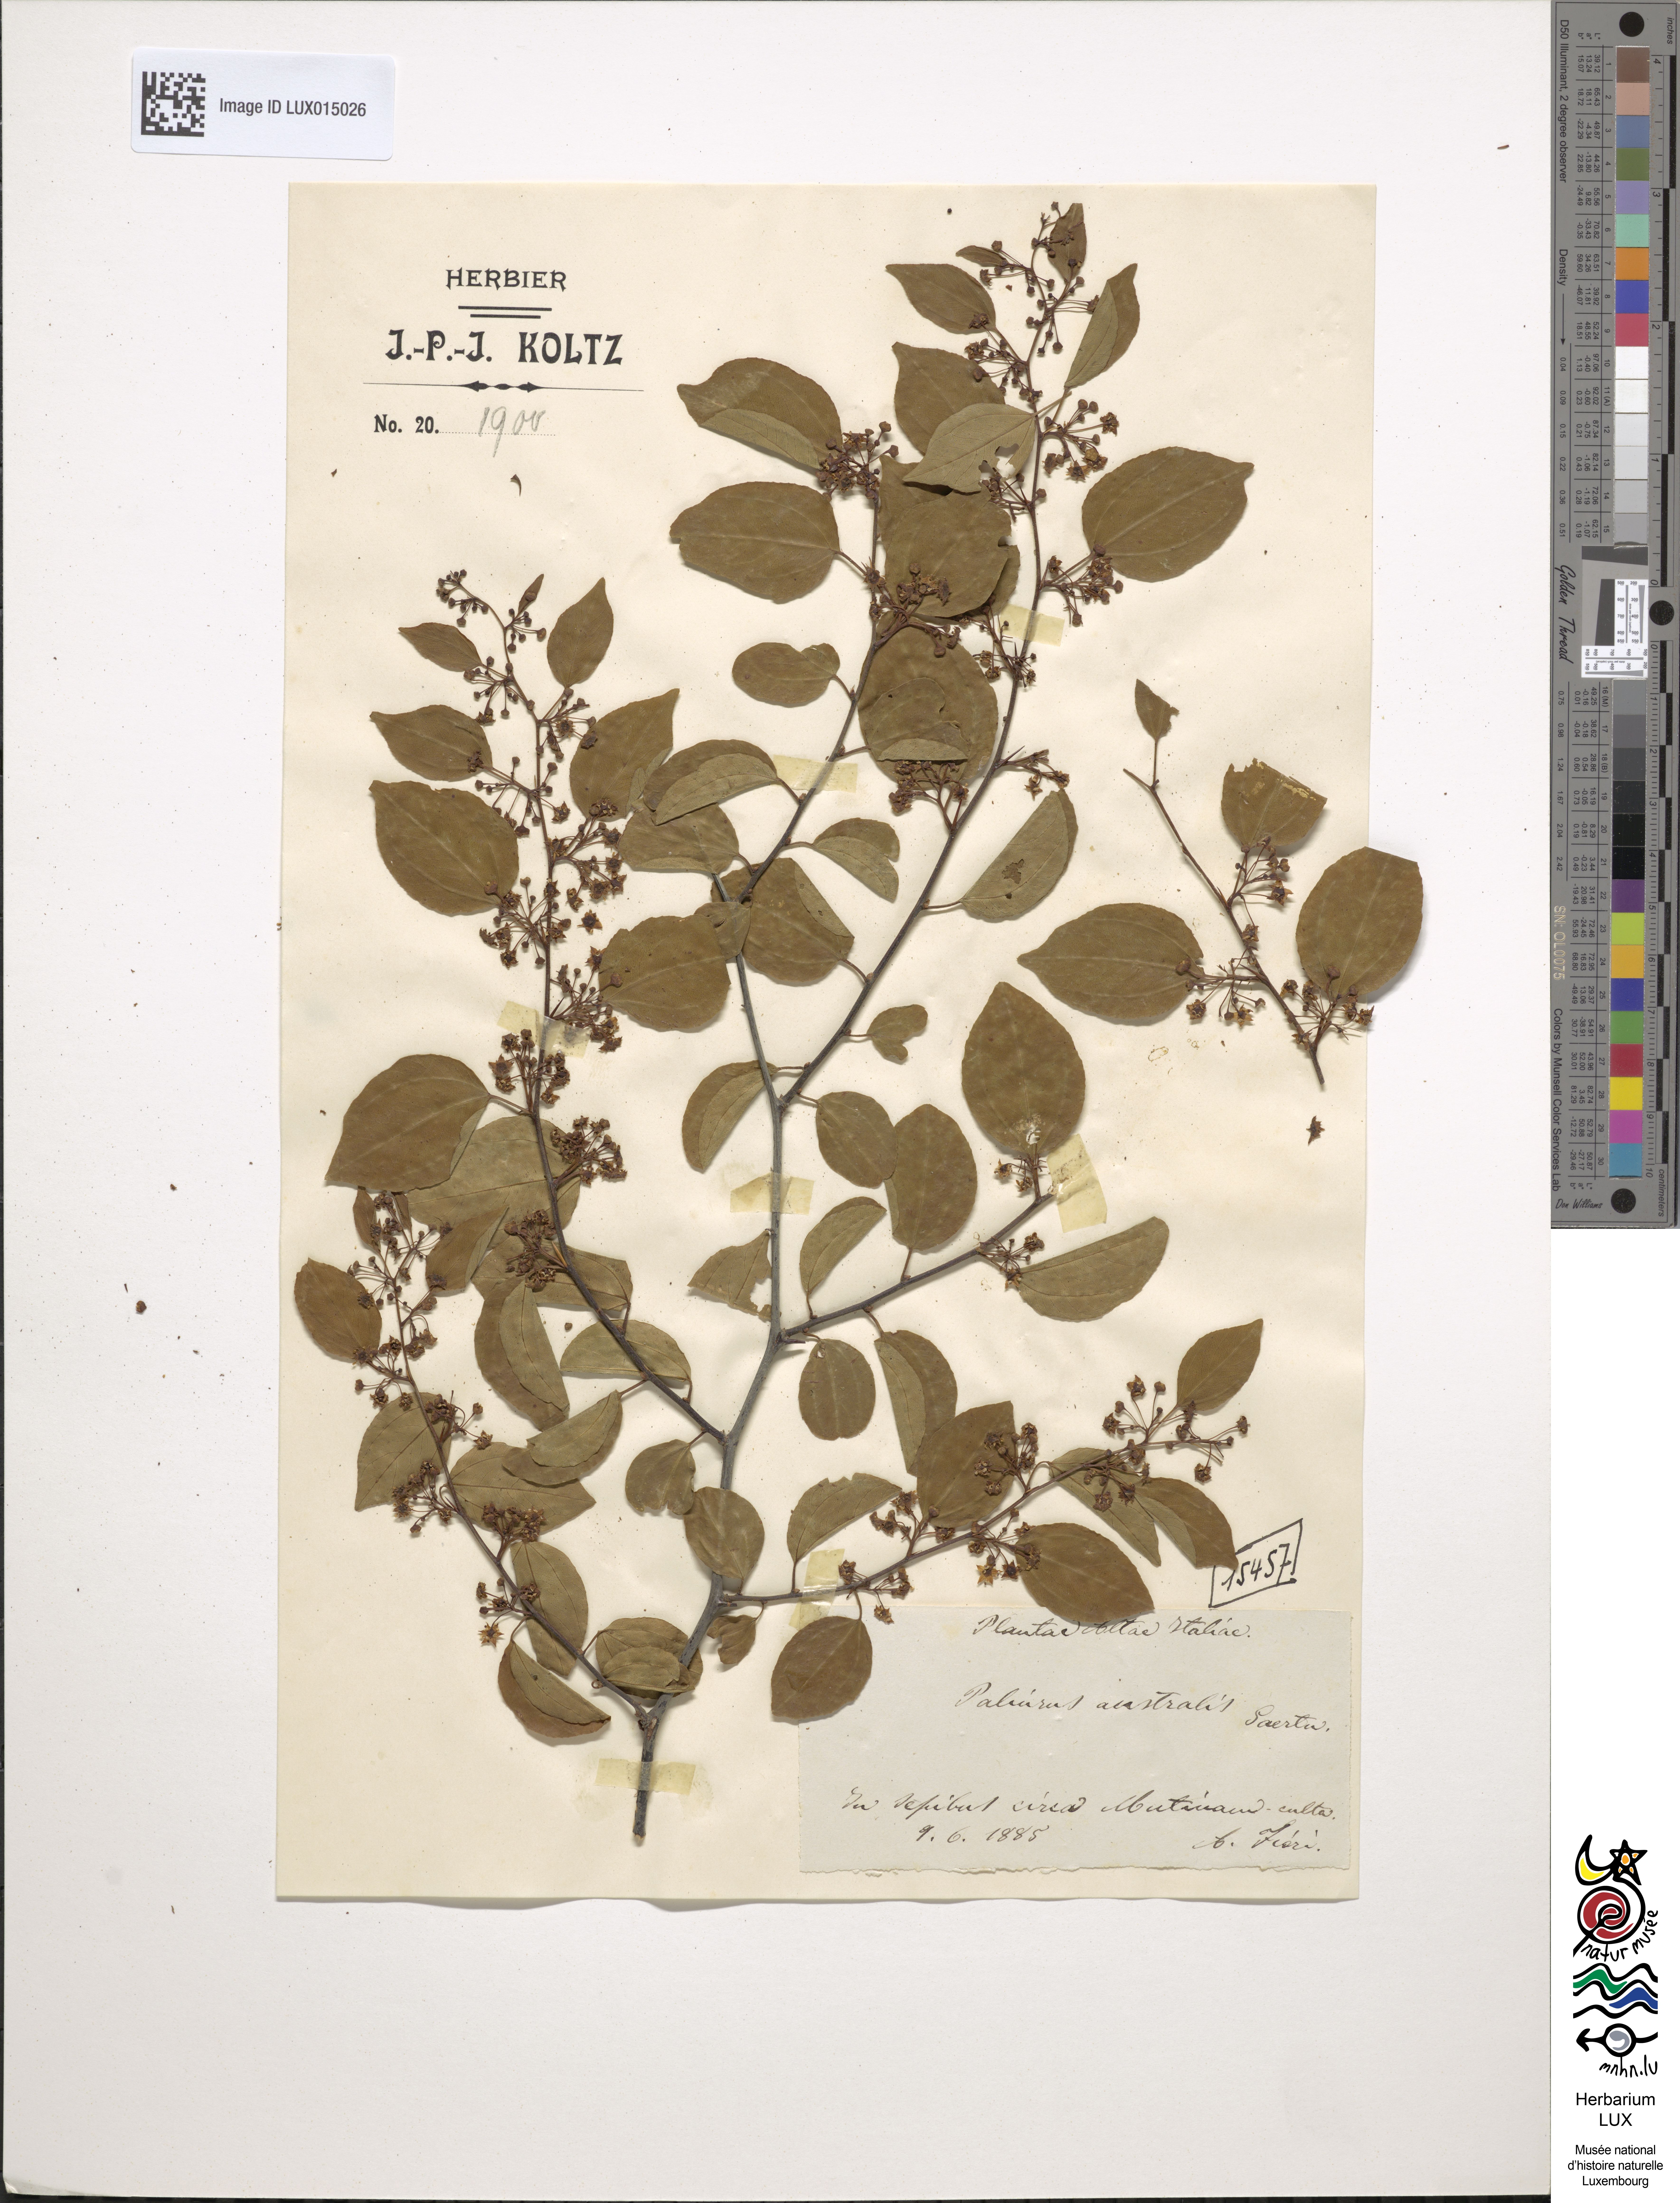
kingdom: Plantae
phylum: Tracheophyta
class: Magnoliopsida
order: Rosales
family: Rhamnaceae
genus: Paliurus
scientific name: Paliurus spina-christi
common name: Jeruselem thorn
